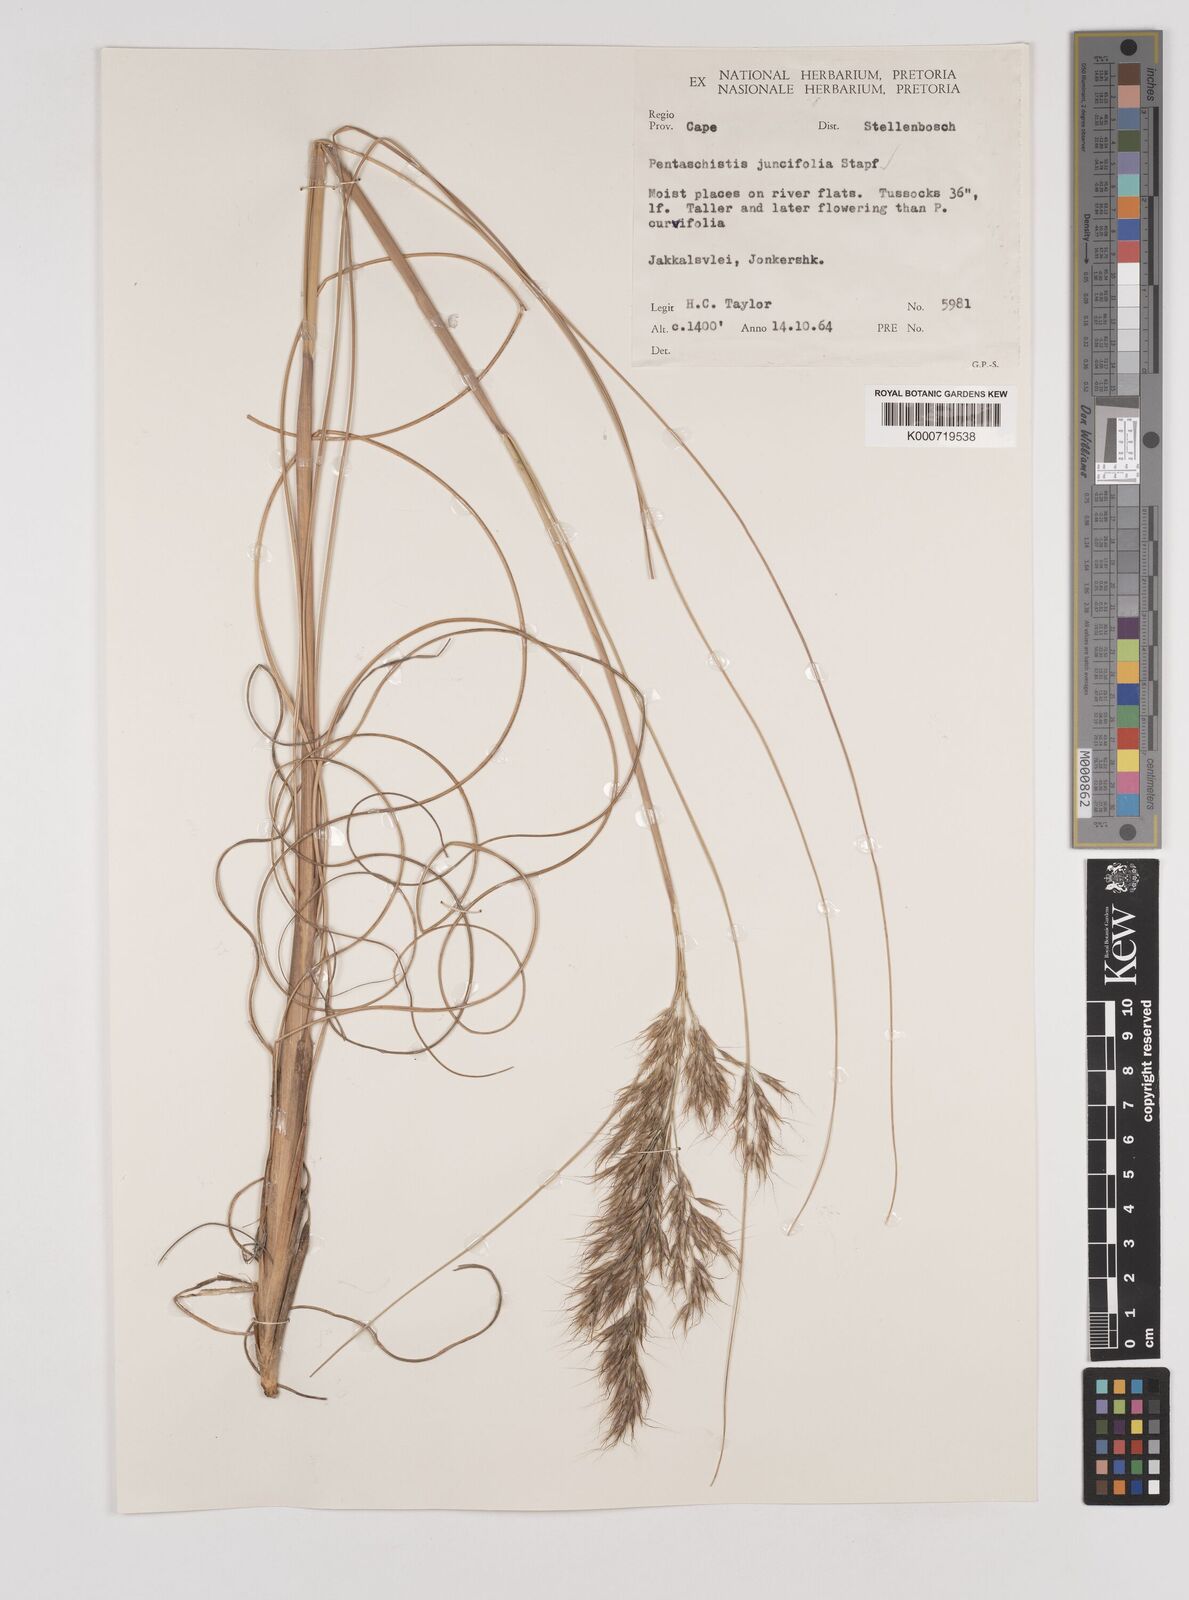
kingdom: Plantae
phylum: Tracheophyta
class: Liliopsida
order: Poales
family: Poaceae
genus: Pentameris
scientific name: Pentameris tortuosa
